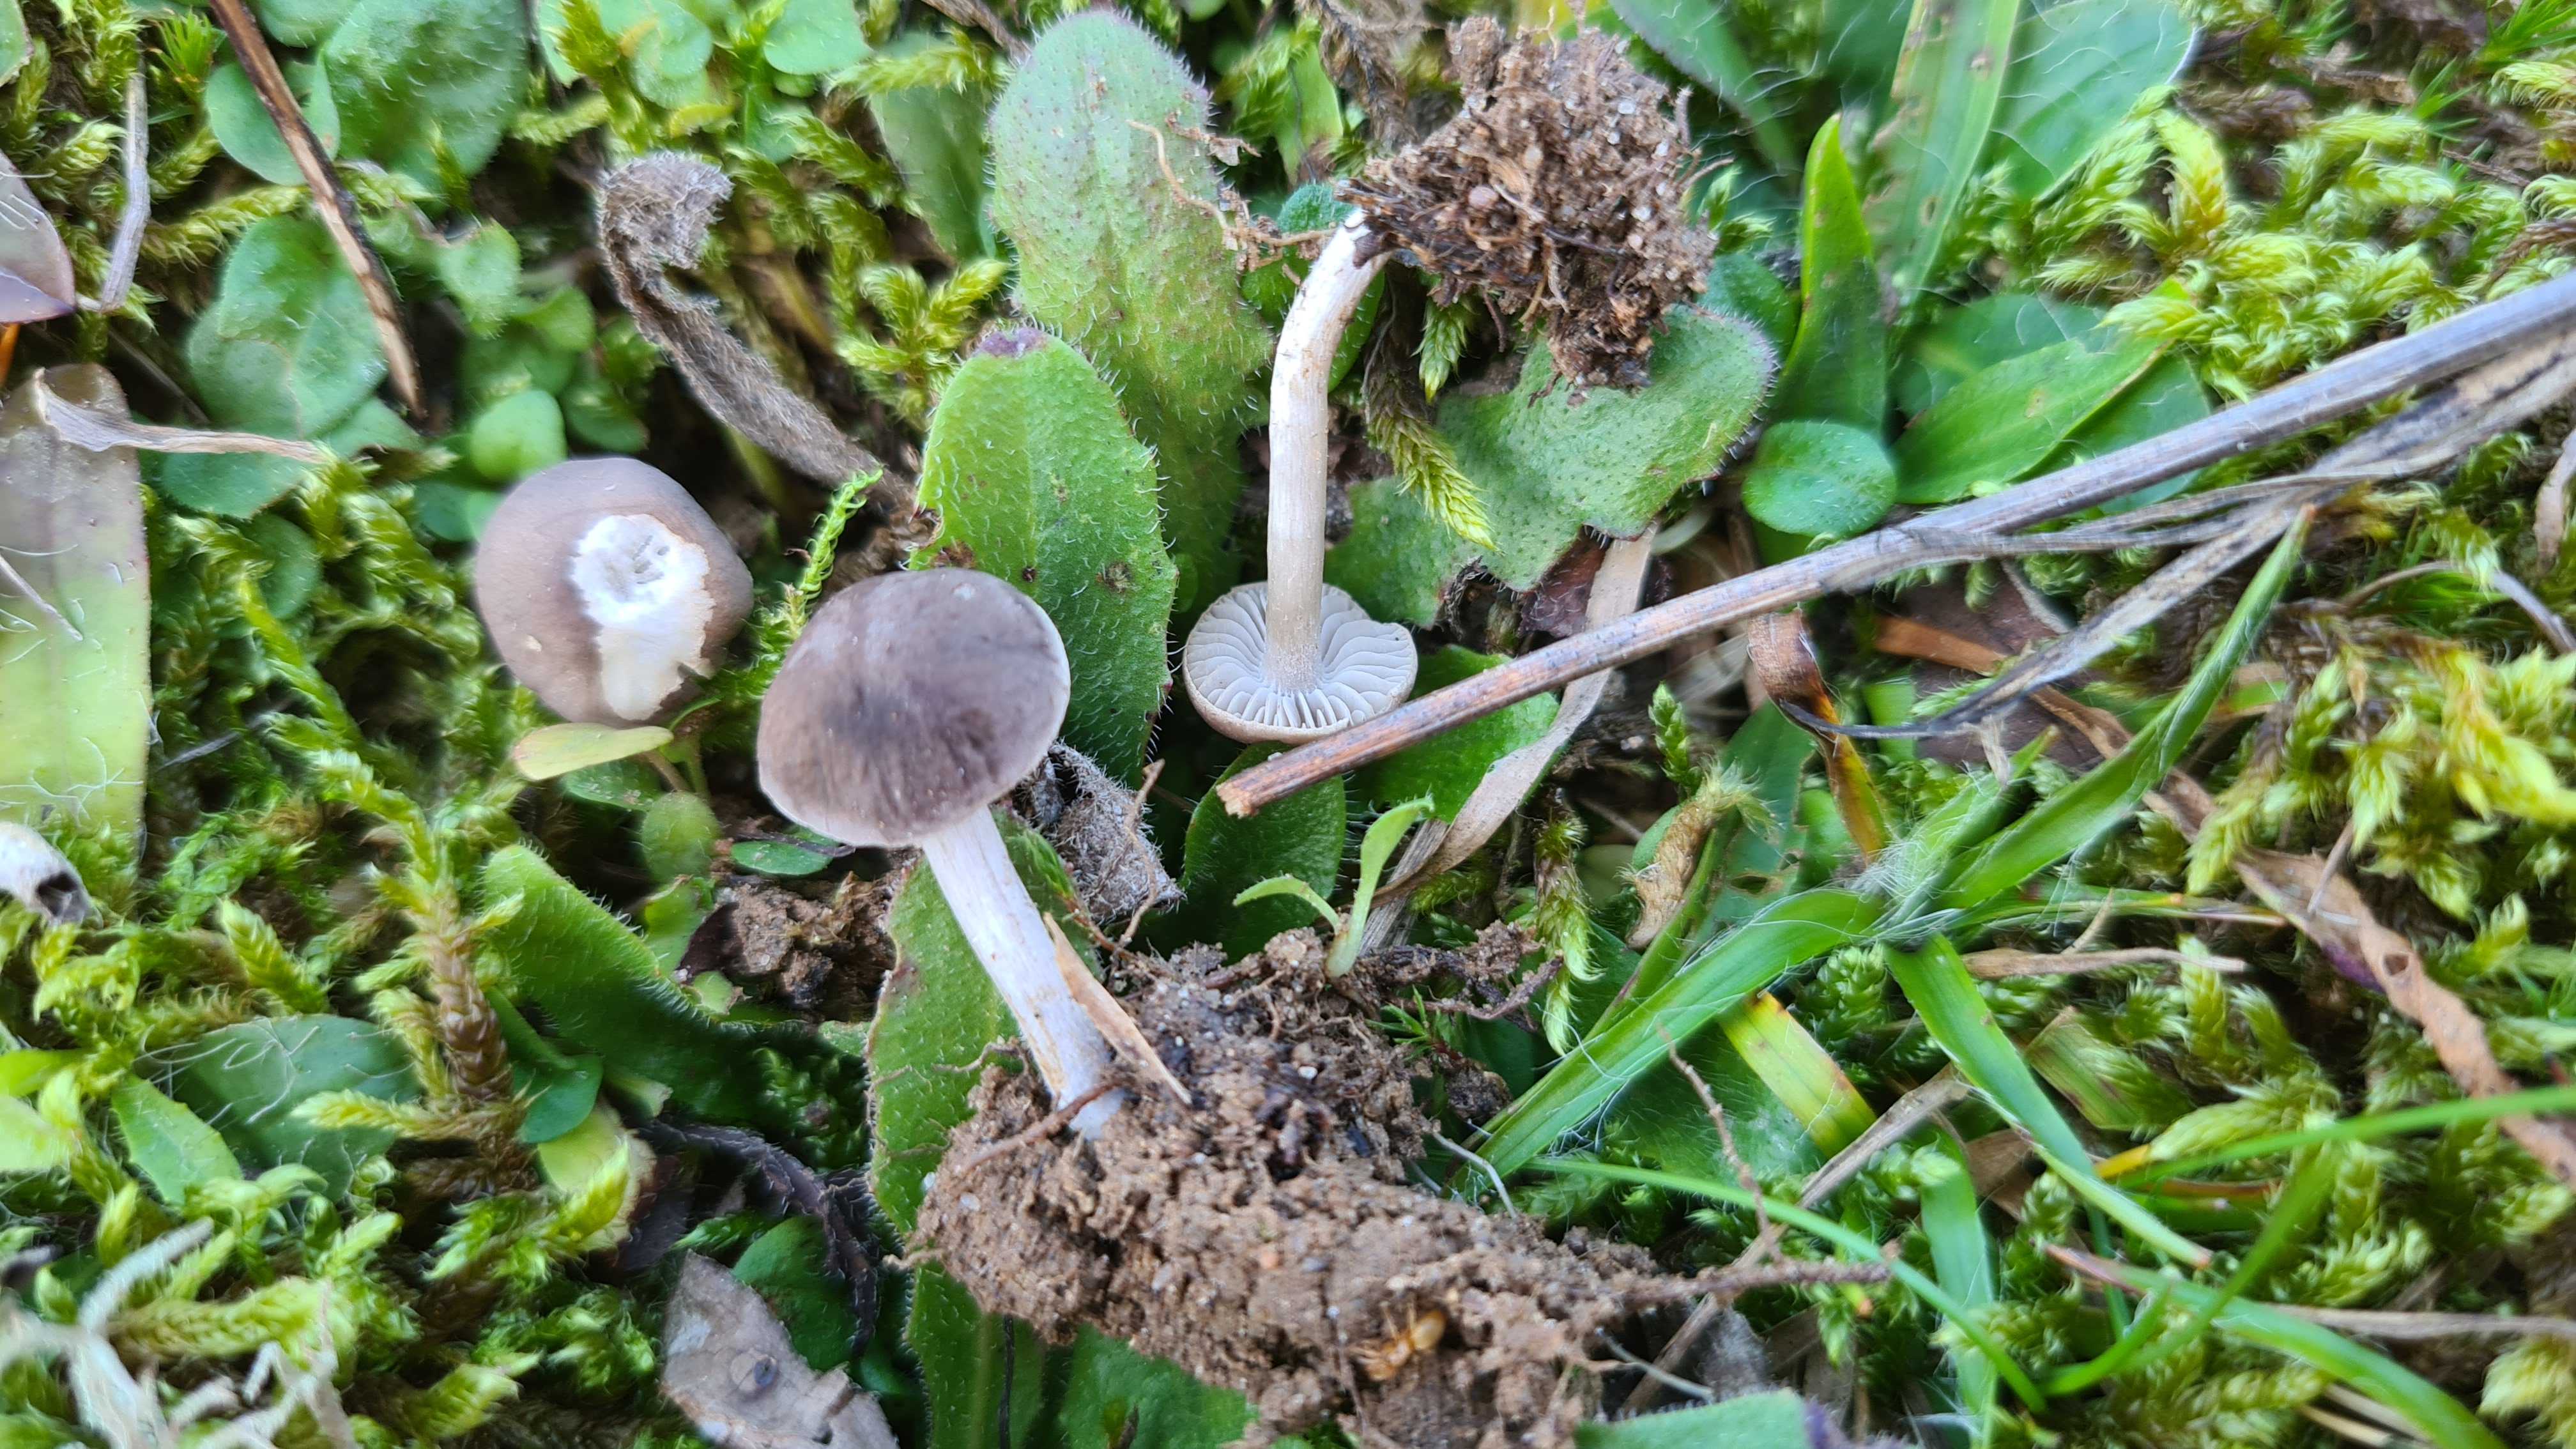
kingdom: Fungi
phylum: Basidiomycota
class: Agaricomycetes
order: Agaricales
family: Tricholomataceae
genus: Dermoloma
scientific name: Dermoloma cuneifolium
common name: eng-nonnehat
